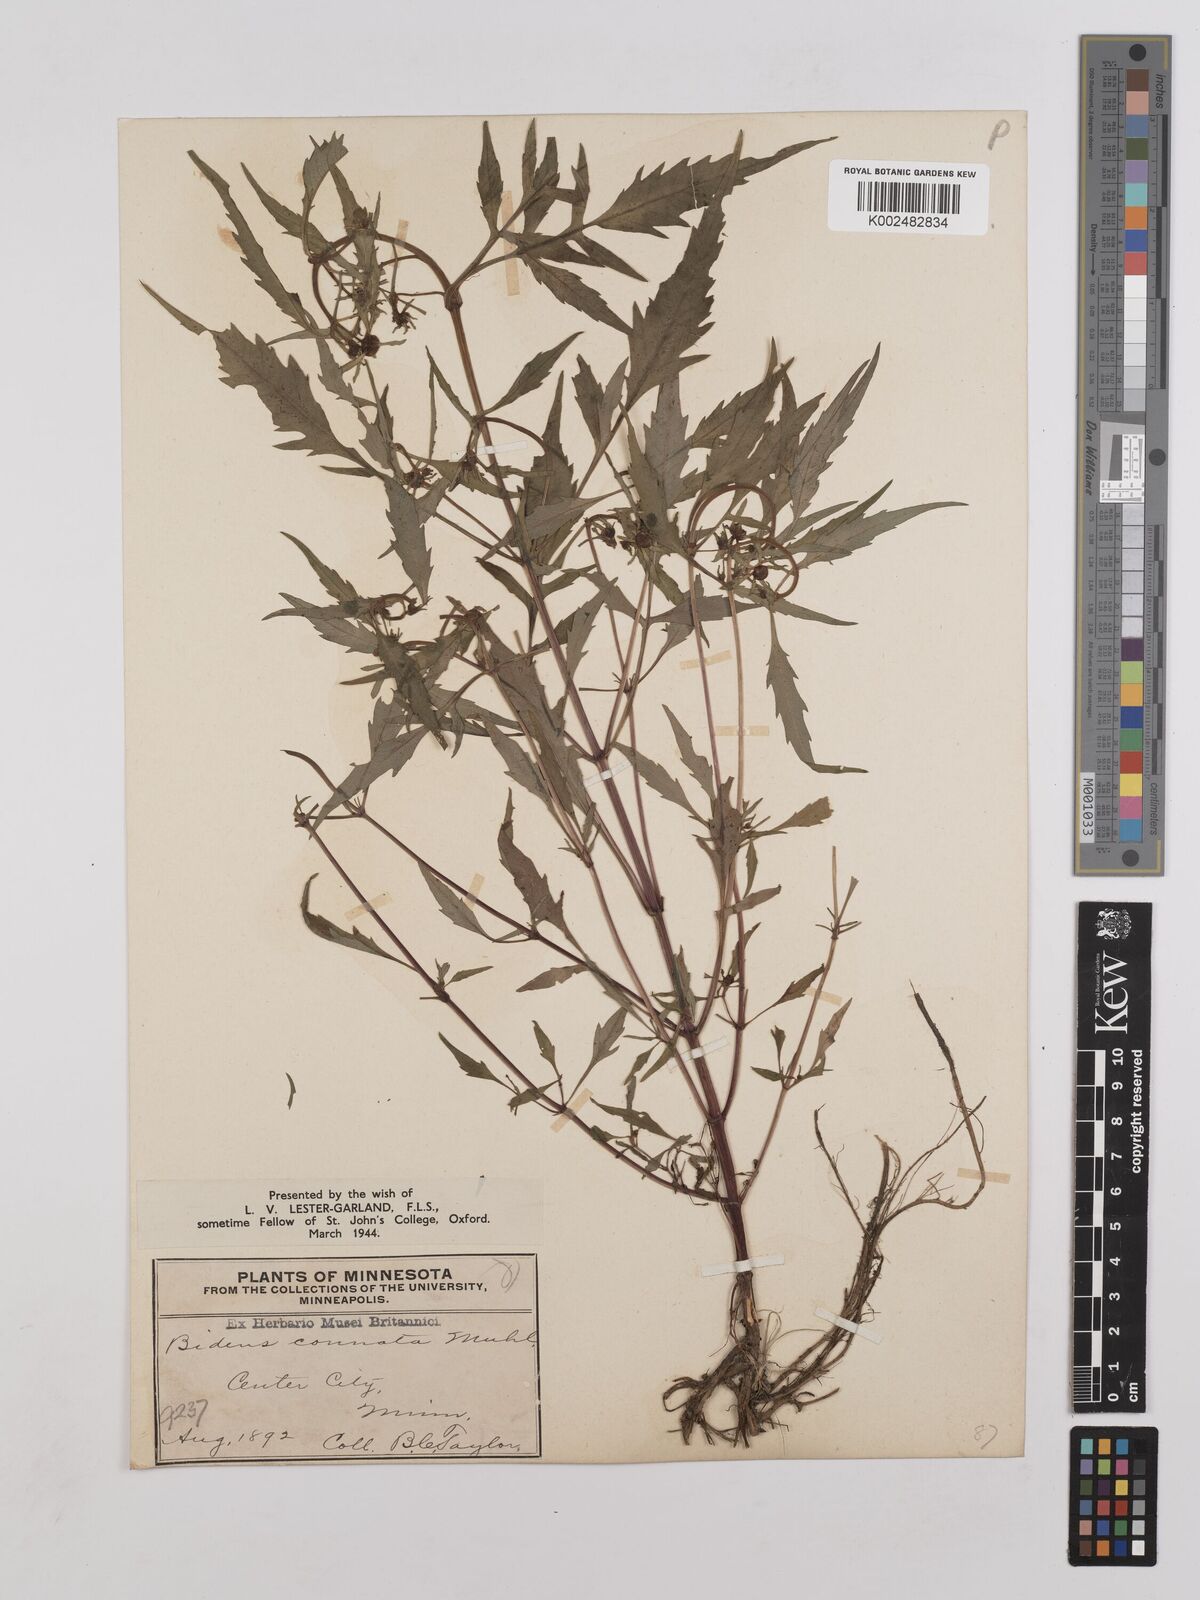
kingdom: Plantae
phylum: Tracheophyta
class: Magnoliopsida
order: Asterales
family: Asteraceae
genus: Bidens
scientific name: Bidens connata
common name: London bur-marigold
